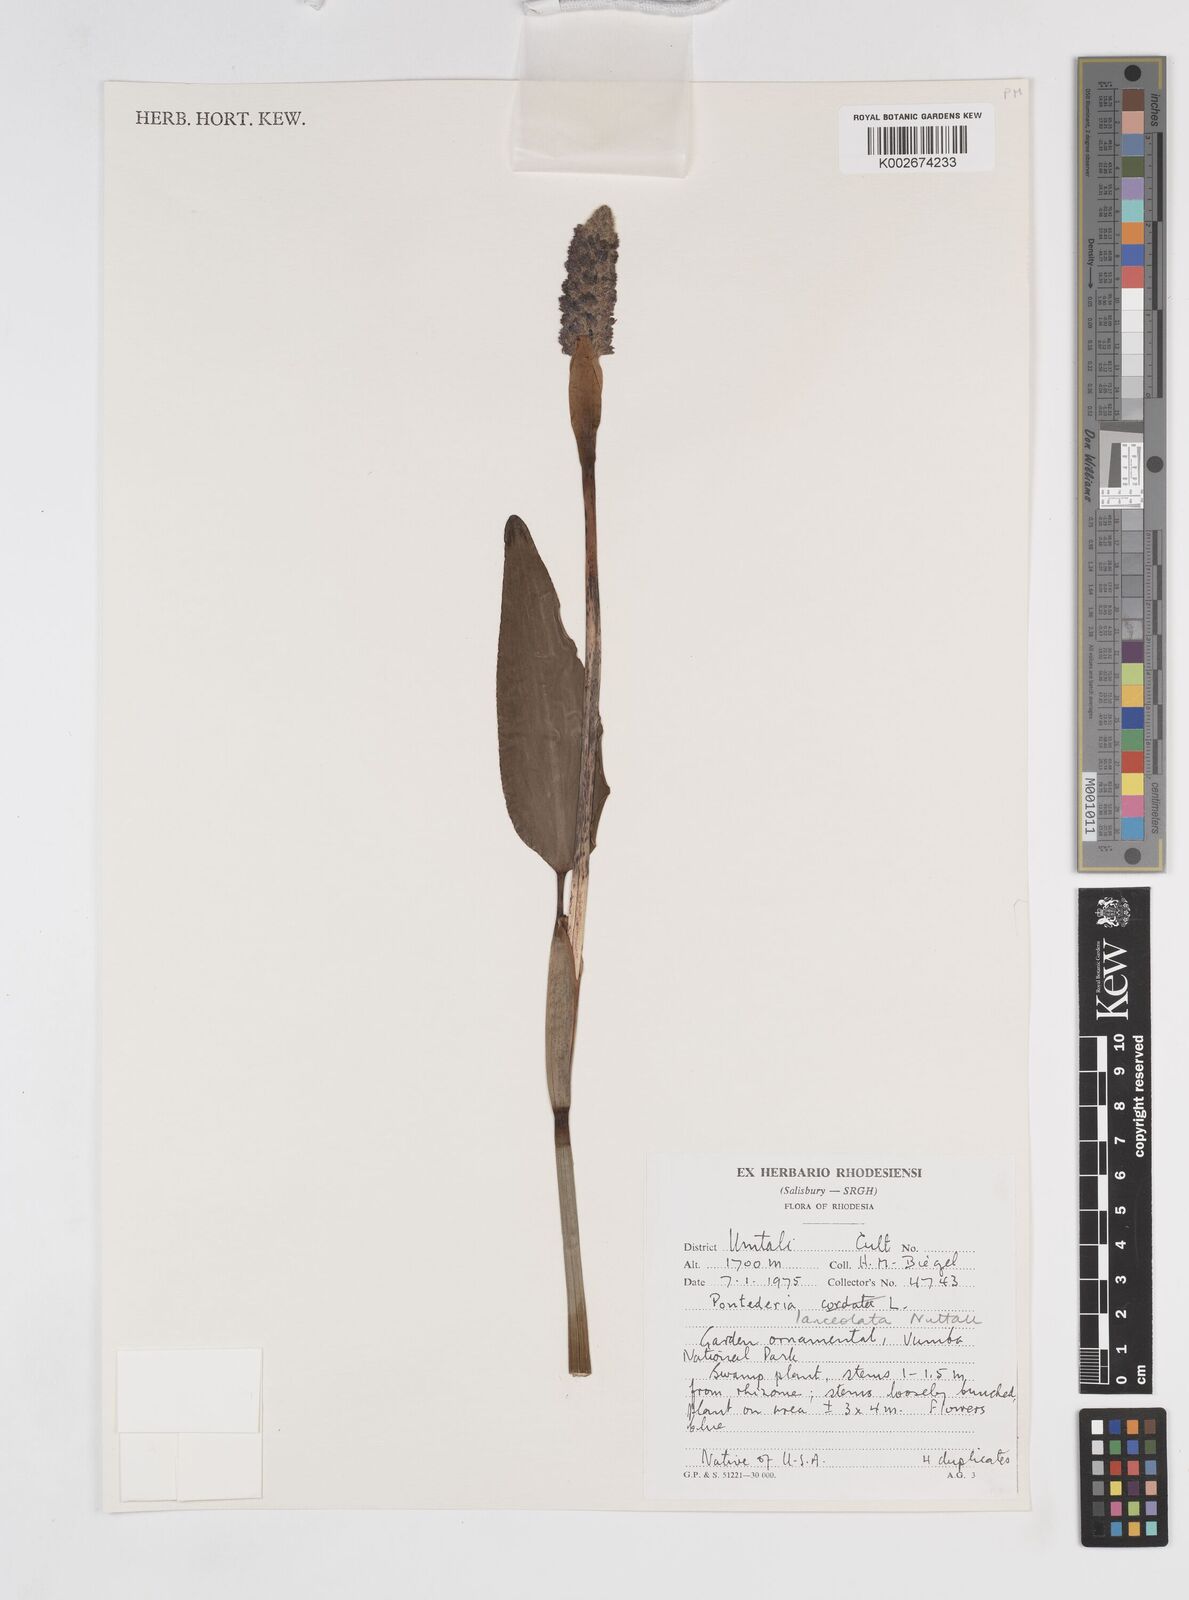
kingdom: Plantae
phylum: Tracheophyta
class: Liliopsida
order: Commelinales
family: Pontederiaceae
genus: Pontederia
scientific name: Pontederia
